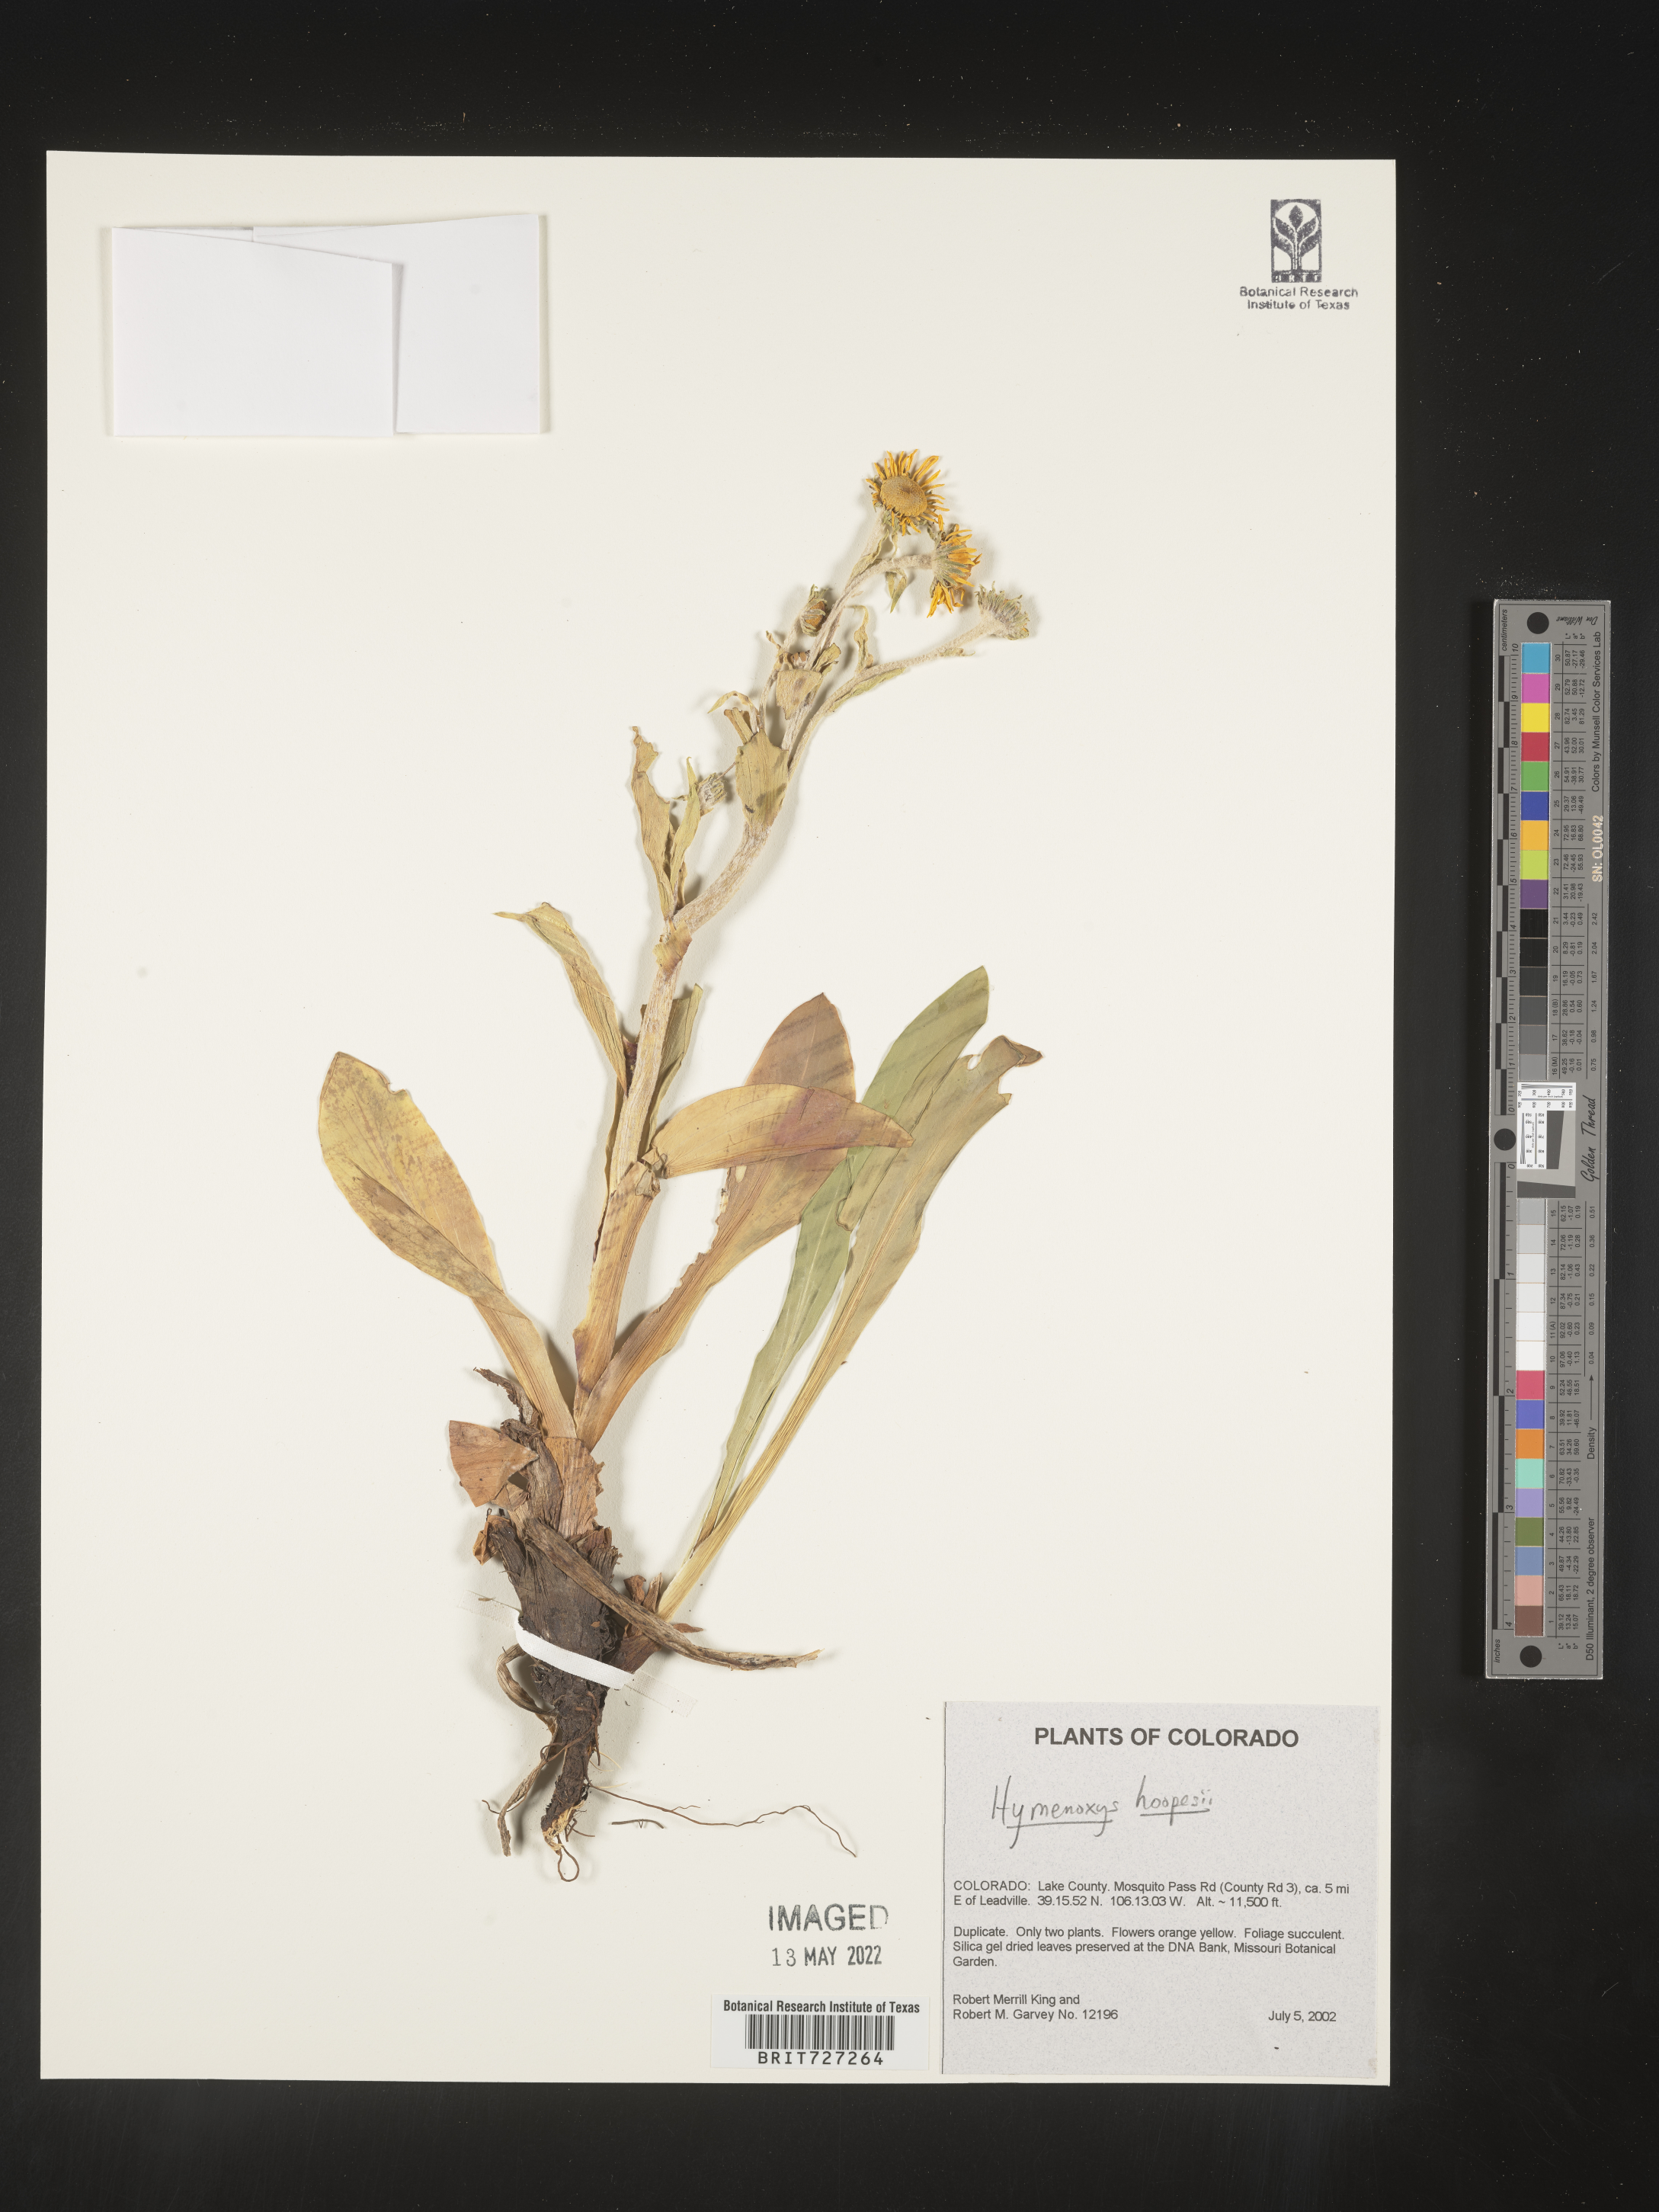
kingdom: Plantae
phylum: Tracheophyta
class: Magnoliopsida
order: Asterales
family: Asteraceae
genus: Hymenoxys
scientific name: Hymenoxys hoopesii
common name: Orange-sneezeweed
